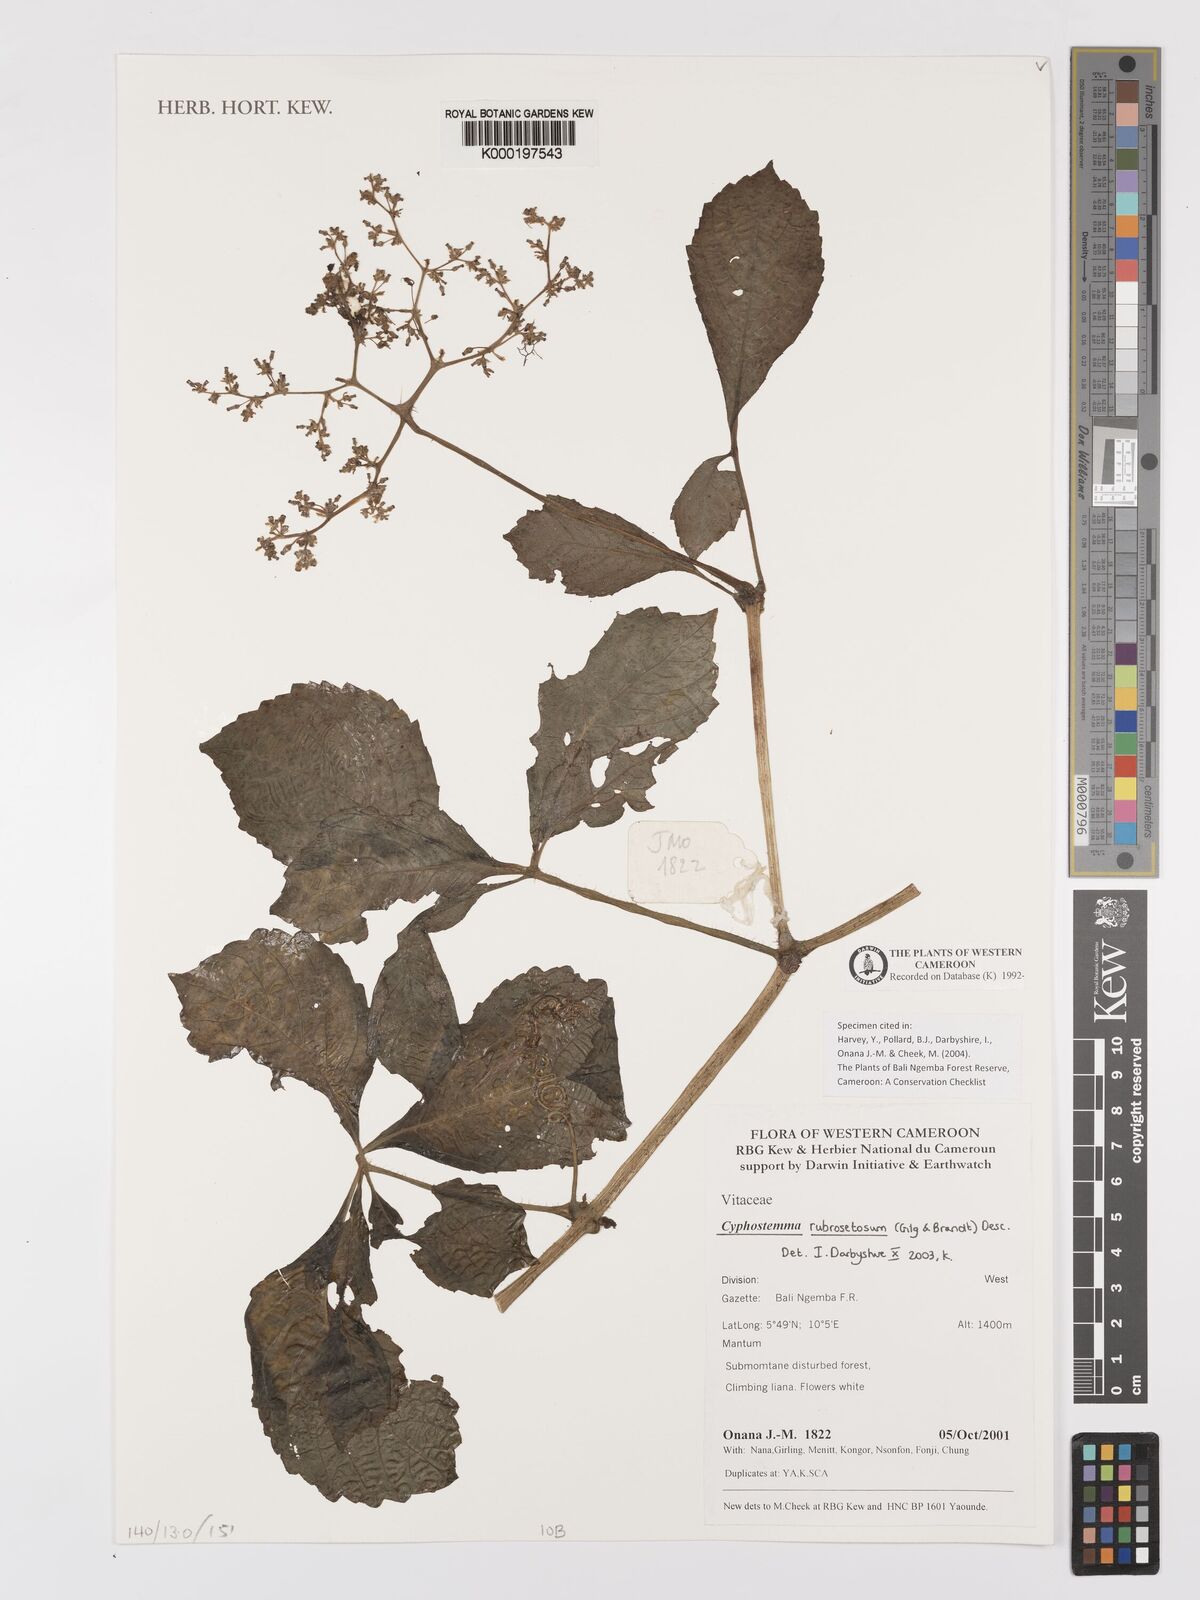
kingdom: Plantae
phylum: Tracheophyta
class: Magnoliopsida
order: Vitales
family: Vitaceae
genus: Cyphostemma
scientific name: Cyphostemma rubrosetosum
